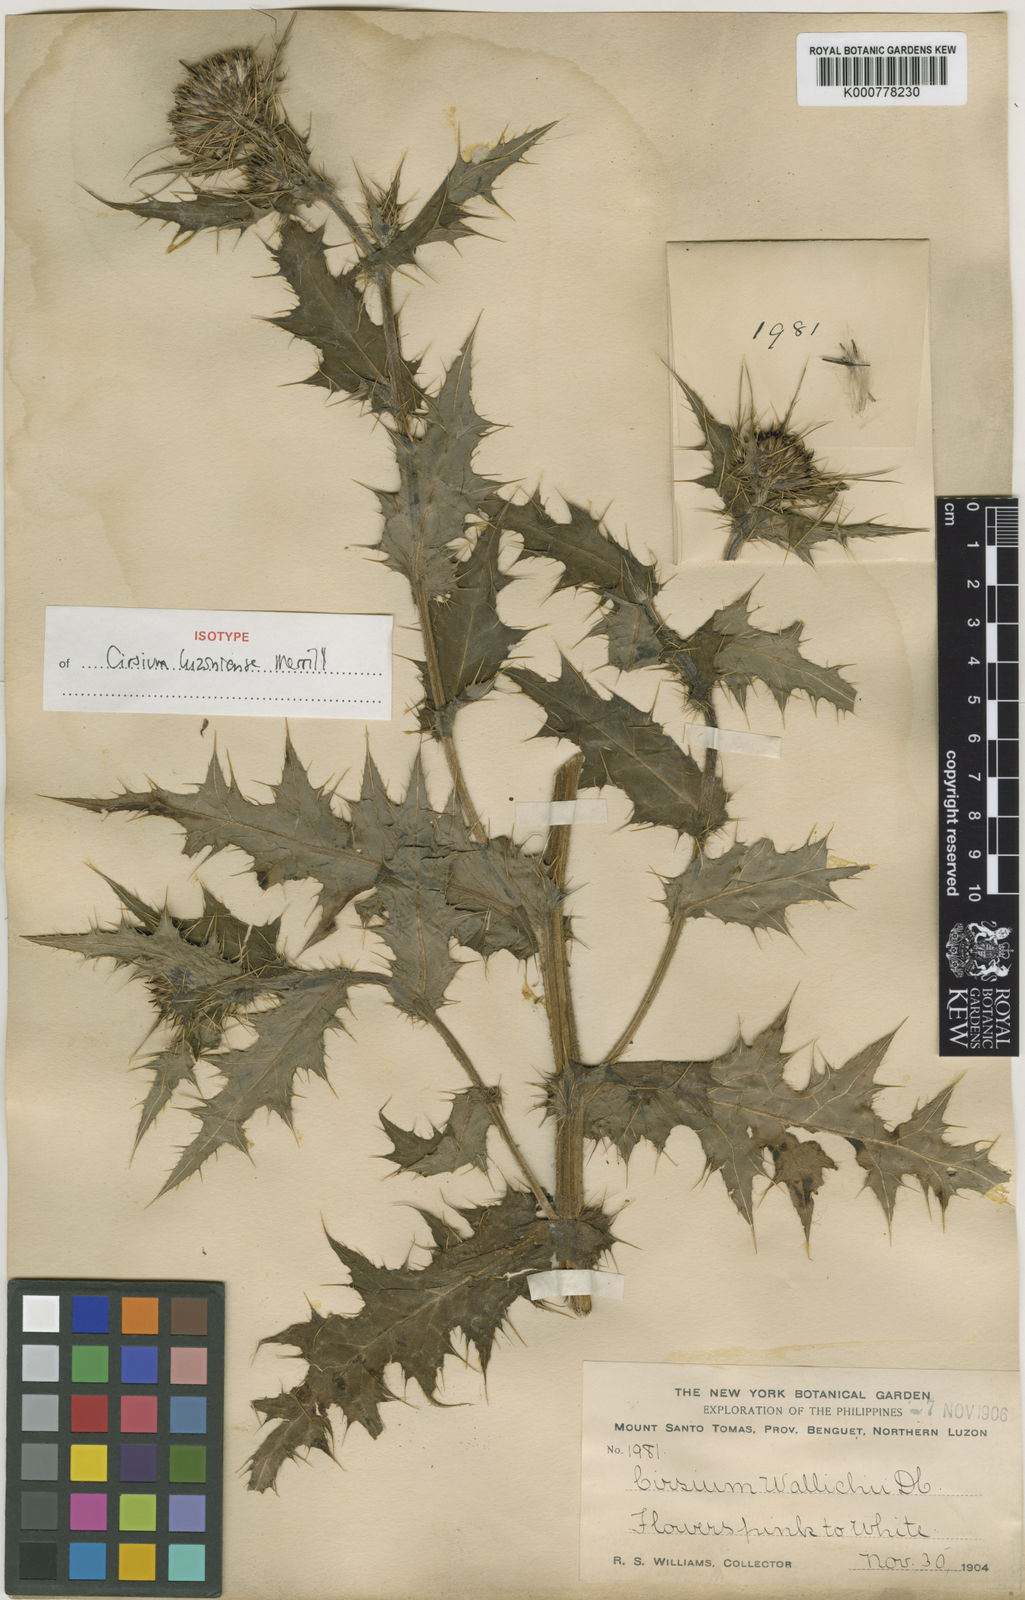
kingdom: Plantae
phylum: Tracheophyta
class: Magnoliopsida
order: Asterales
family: Asteraceae
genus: Cirsium
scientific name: Cirsium luzoniense
